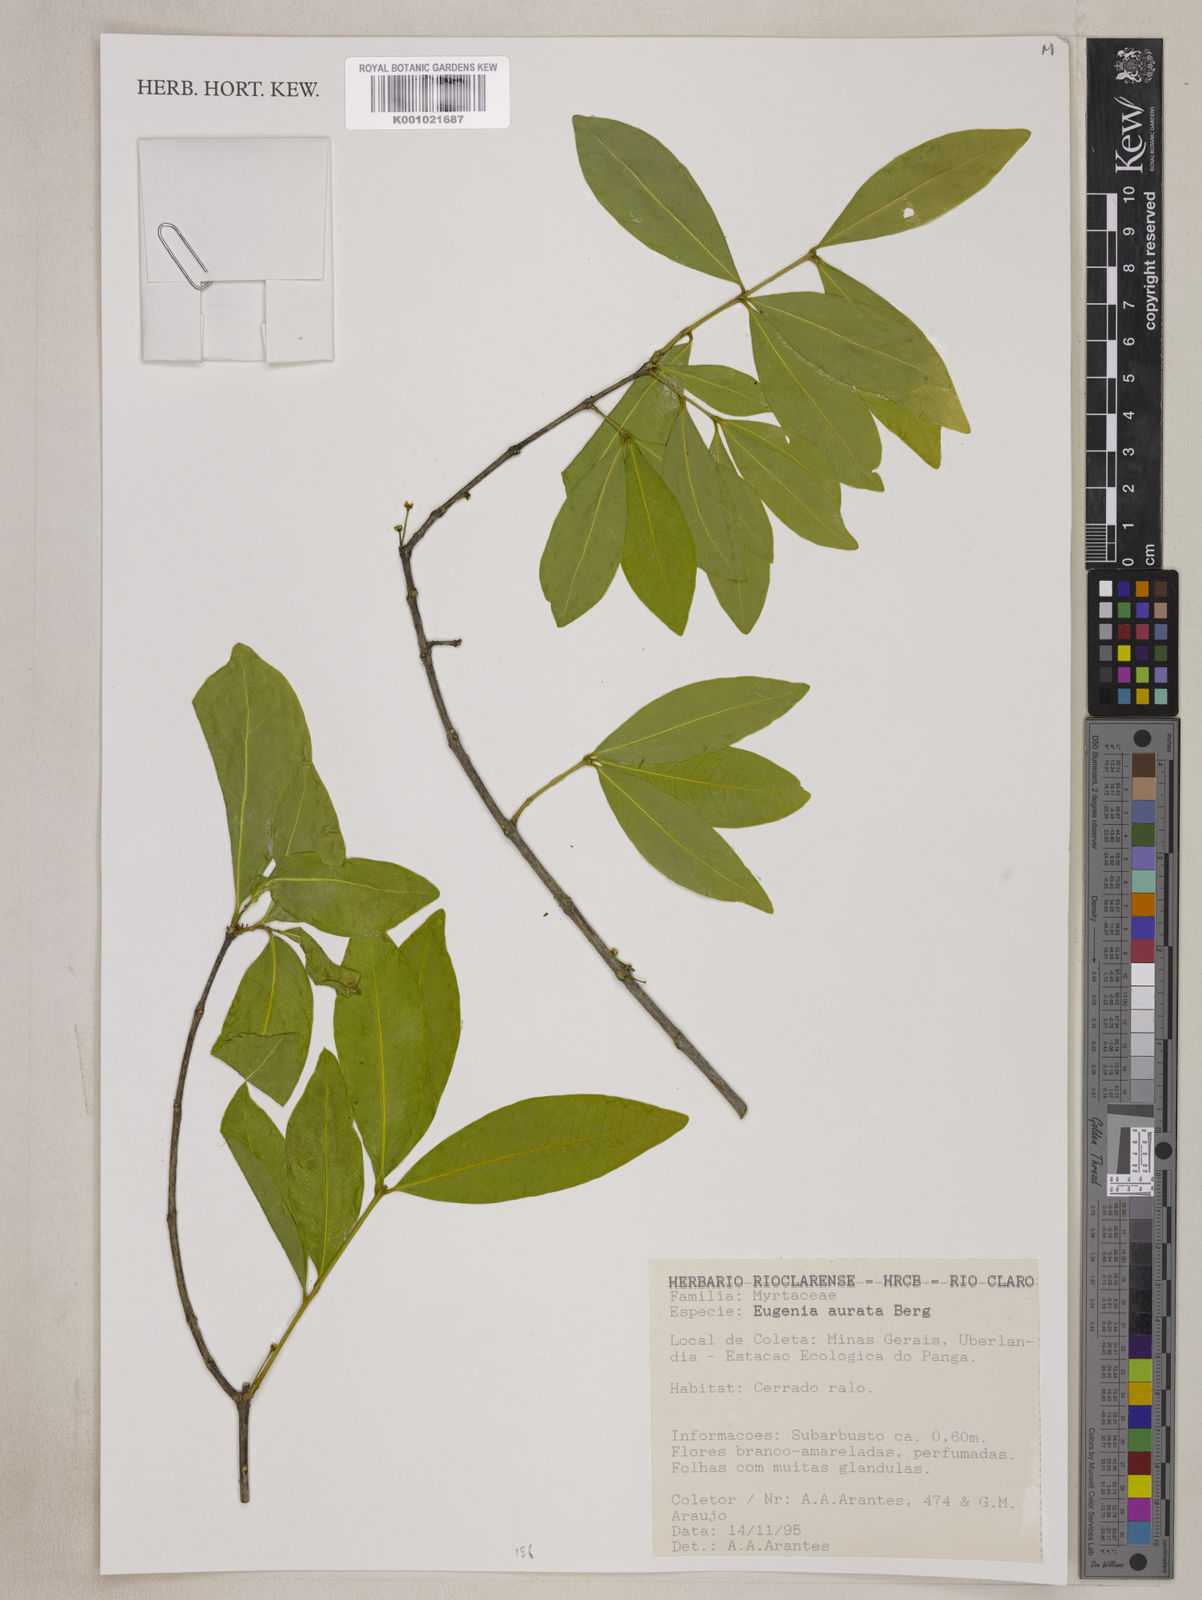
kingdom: Plantae
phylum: Tracheophyta
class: Magnoliopsida
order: Myrtales
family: Myrtaceae
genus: Eugenia
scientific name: Eugenia aurata
